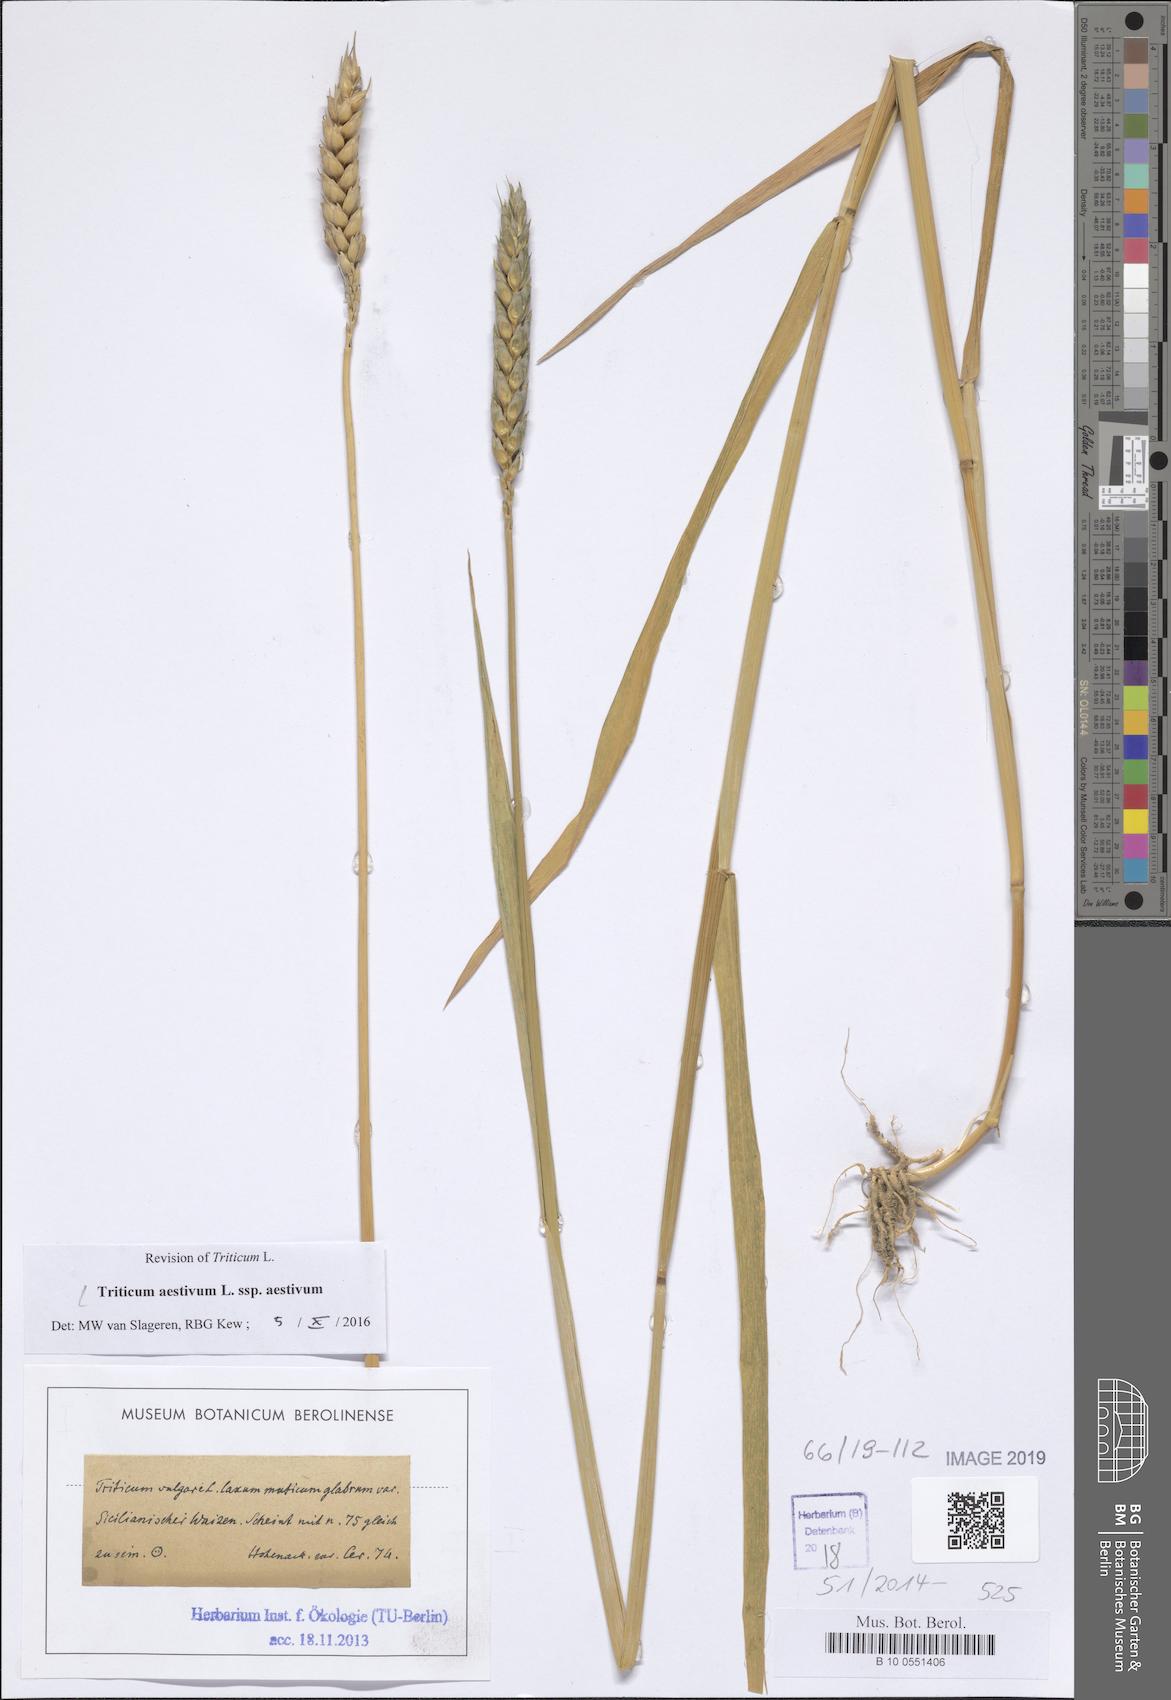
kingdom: Plantae
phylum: Tracheophyta
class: Liliopsida
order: Poales
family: Poaceae
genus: Triticum
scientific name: Triticum aestivum
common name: Common wheat
